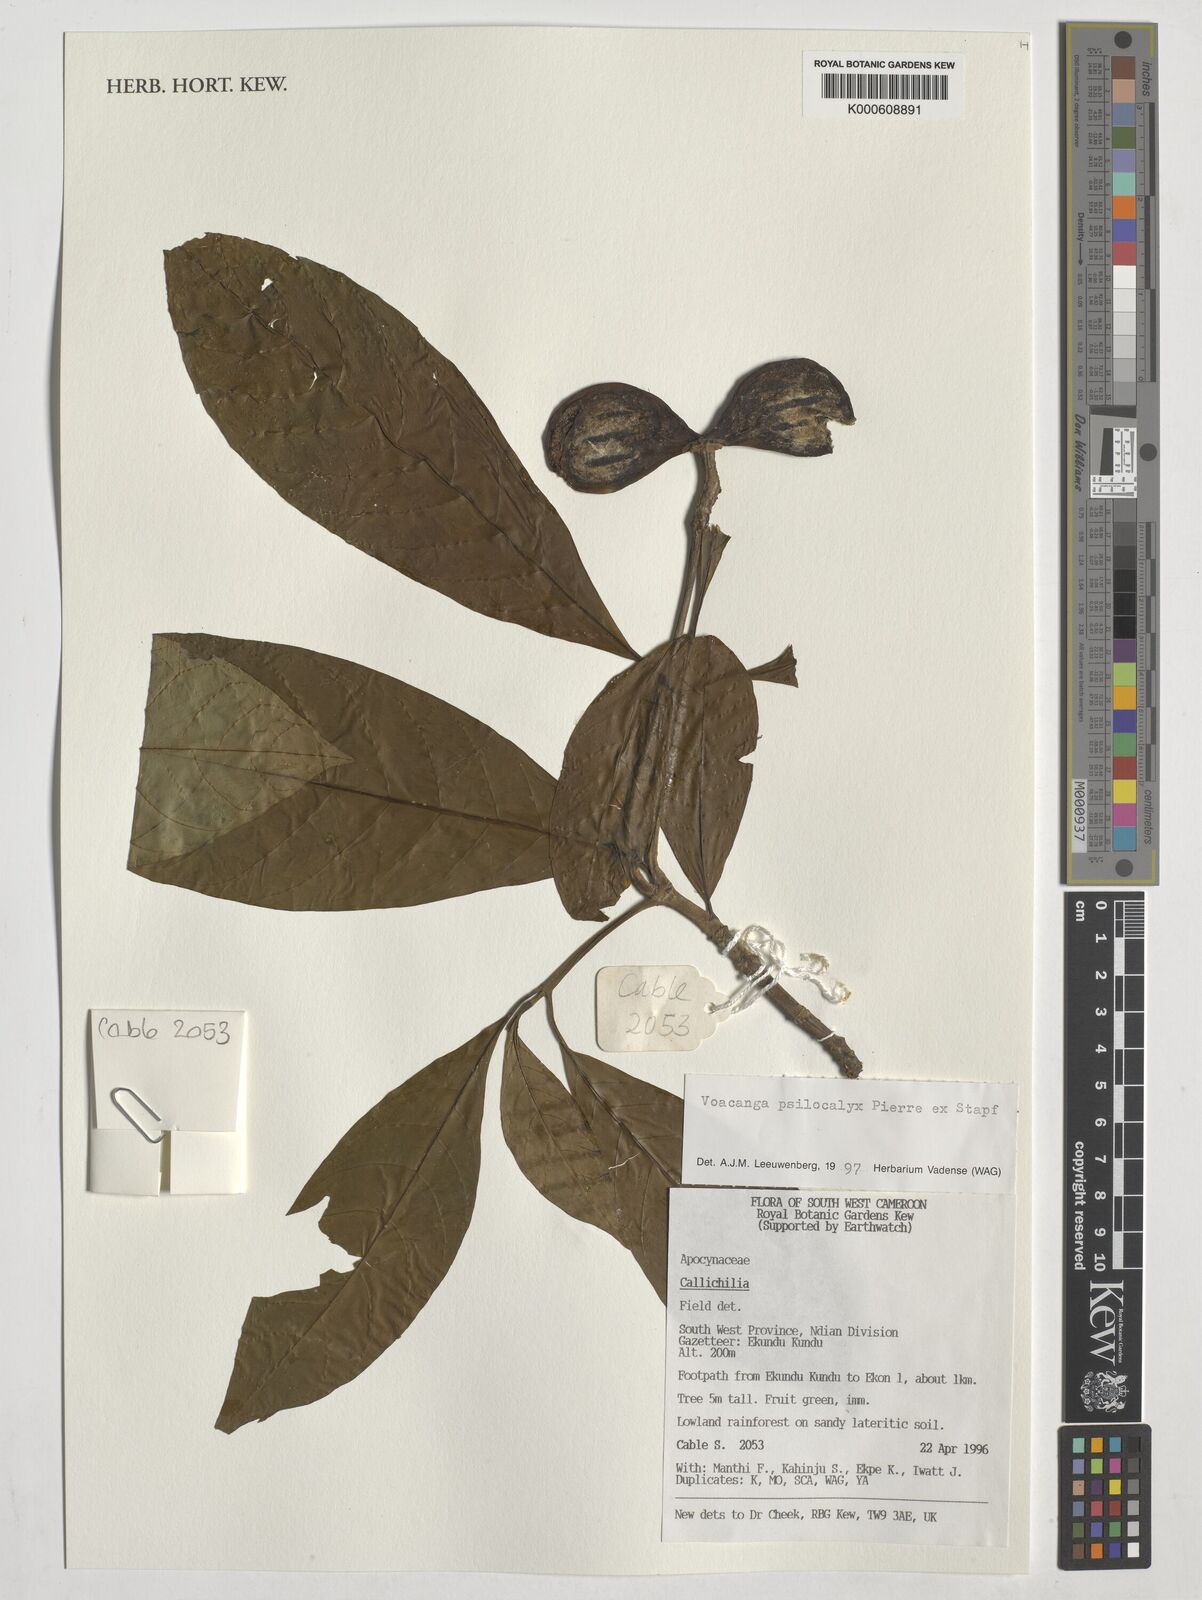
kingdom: Plantae
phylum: Tracheophyta
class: Magnoliopsida
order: Gentianales
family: Apocynaceae
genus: Voacanga
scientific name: Voacanga psilocalyx
